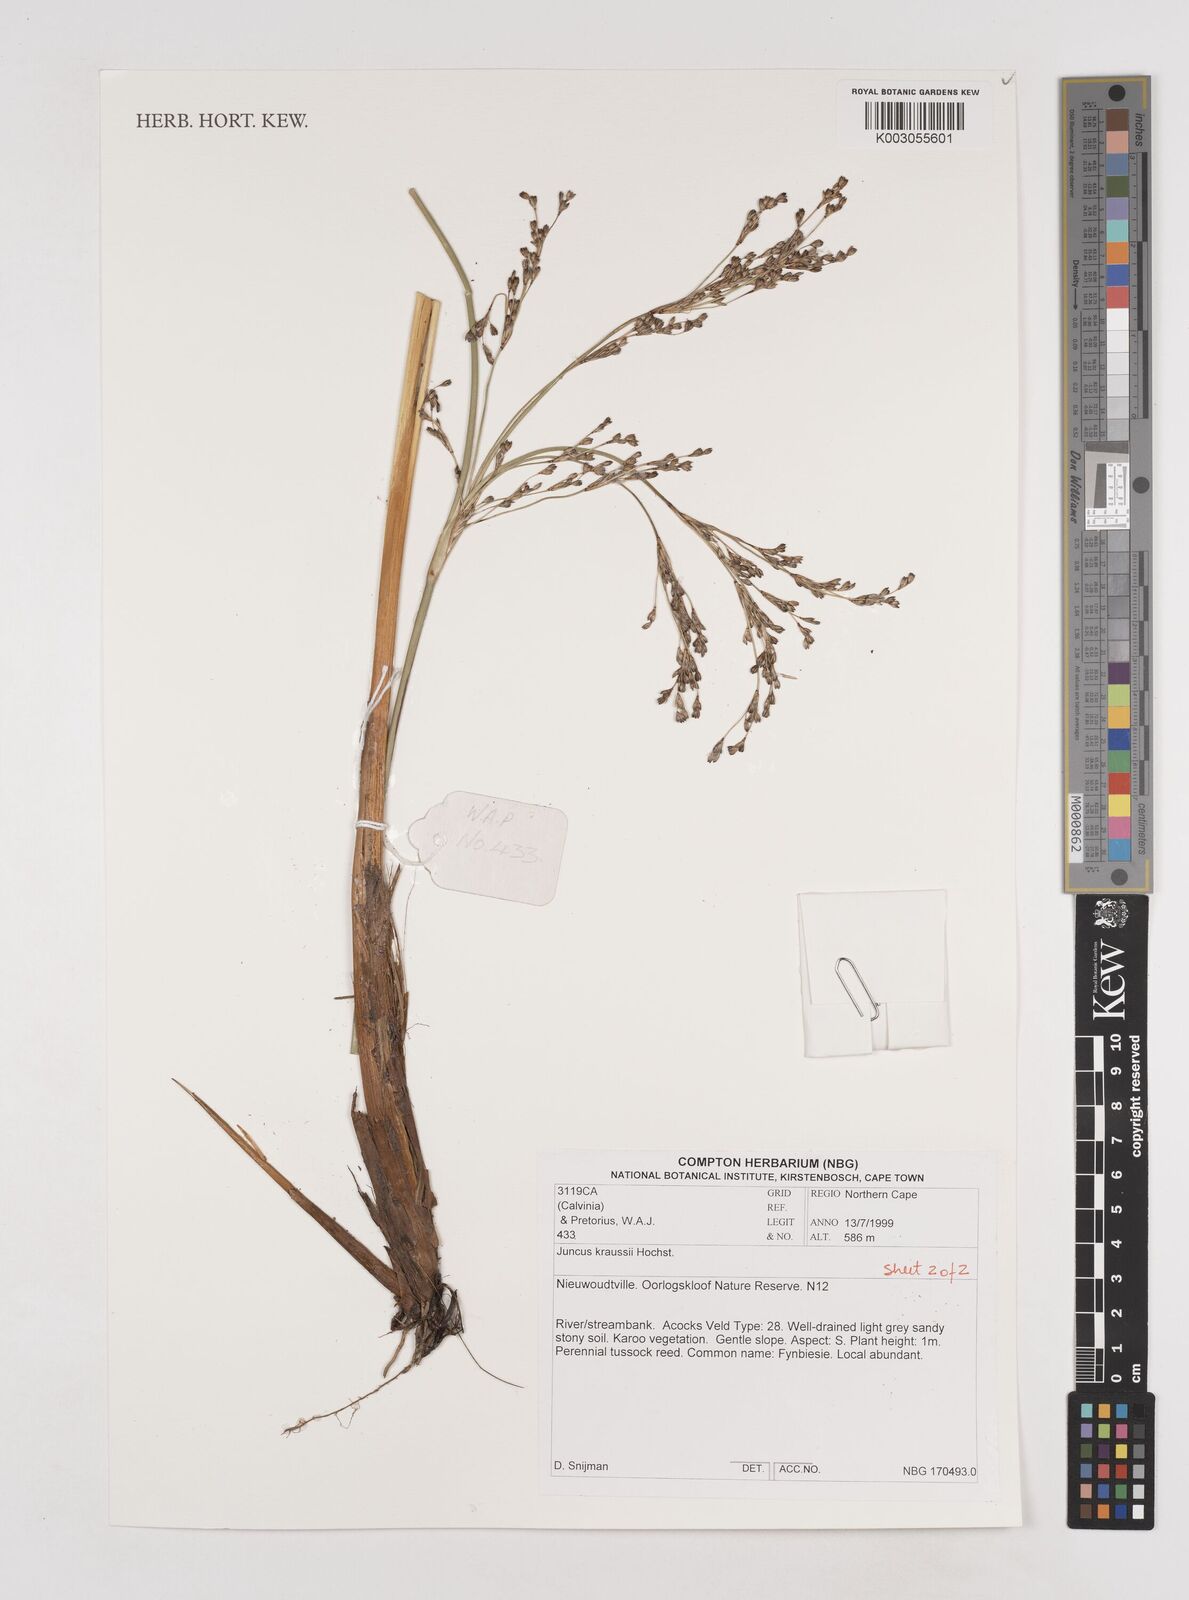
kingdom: Plantae
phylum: Tracheophyta
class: Liliopsida
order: Poales
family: Juncaceae
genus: Juncus
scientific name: Juncus kraussii
